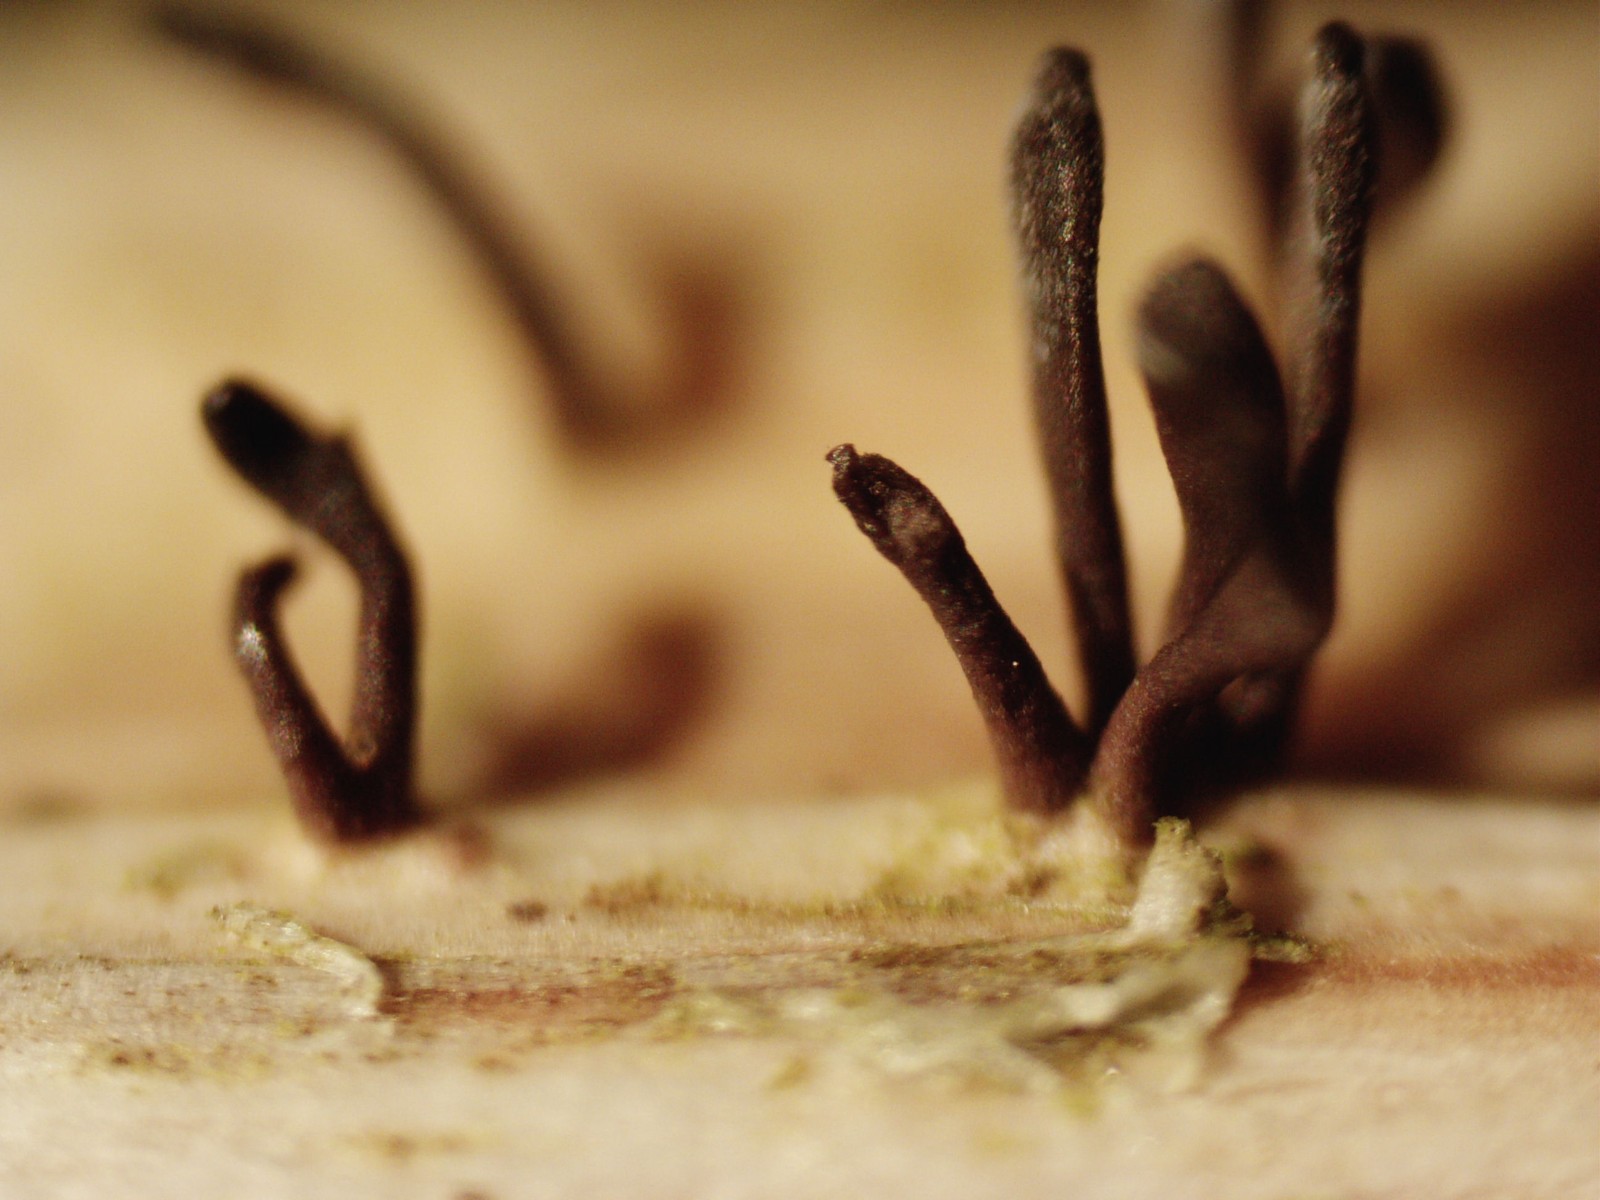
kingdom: Fungi
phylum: Ascomycota
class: Dothideomycetes
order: Acrospermales
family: Acrospermaceae
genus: Acrospermum
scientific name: Acrospermum compressum
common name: nælde-stængeltunge
